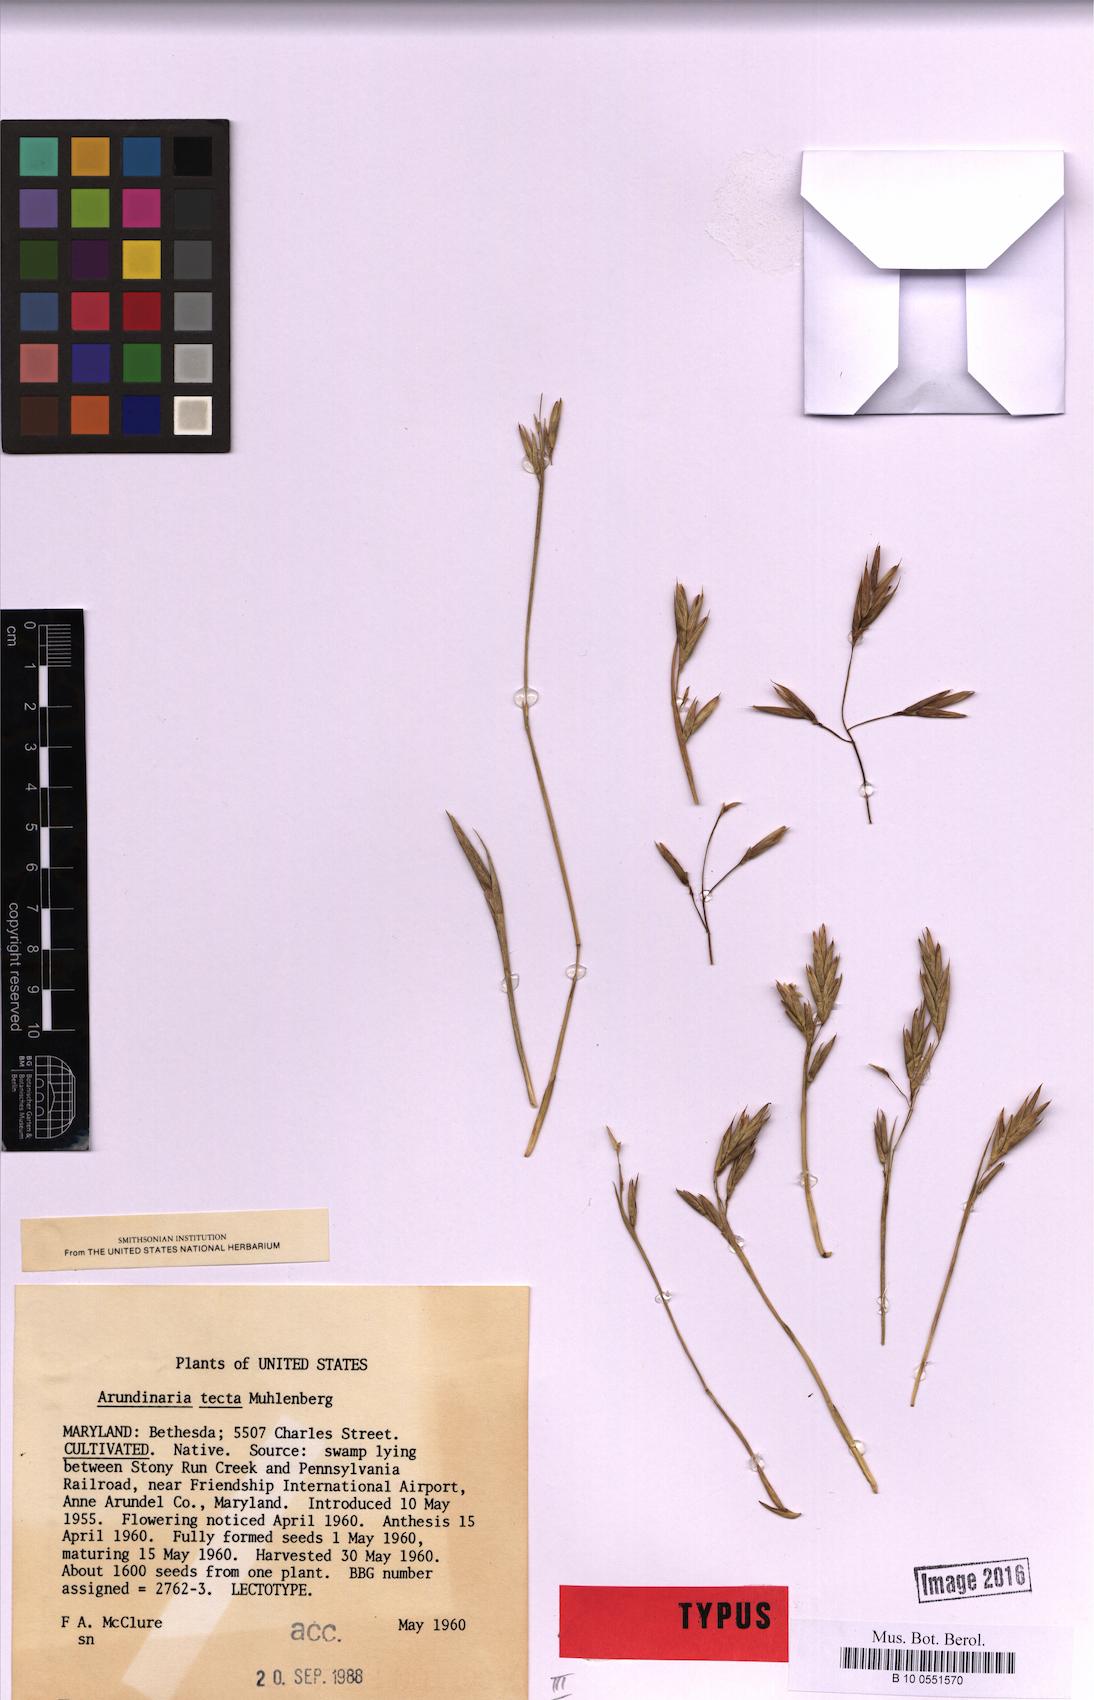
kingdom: Plantae
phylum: Tracheophyta
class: Liliopsida
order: Poales
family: Poaceae
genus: Arundinaria
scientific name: Arundinaria tecta
